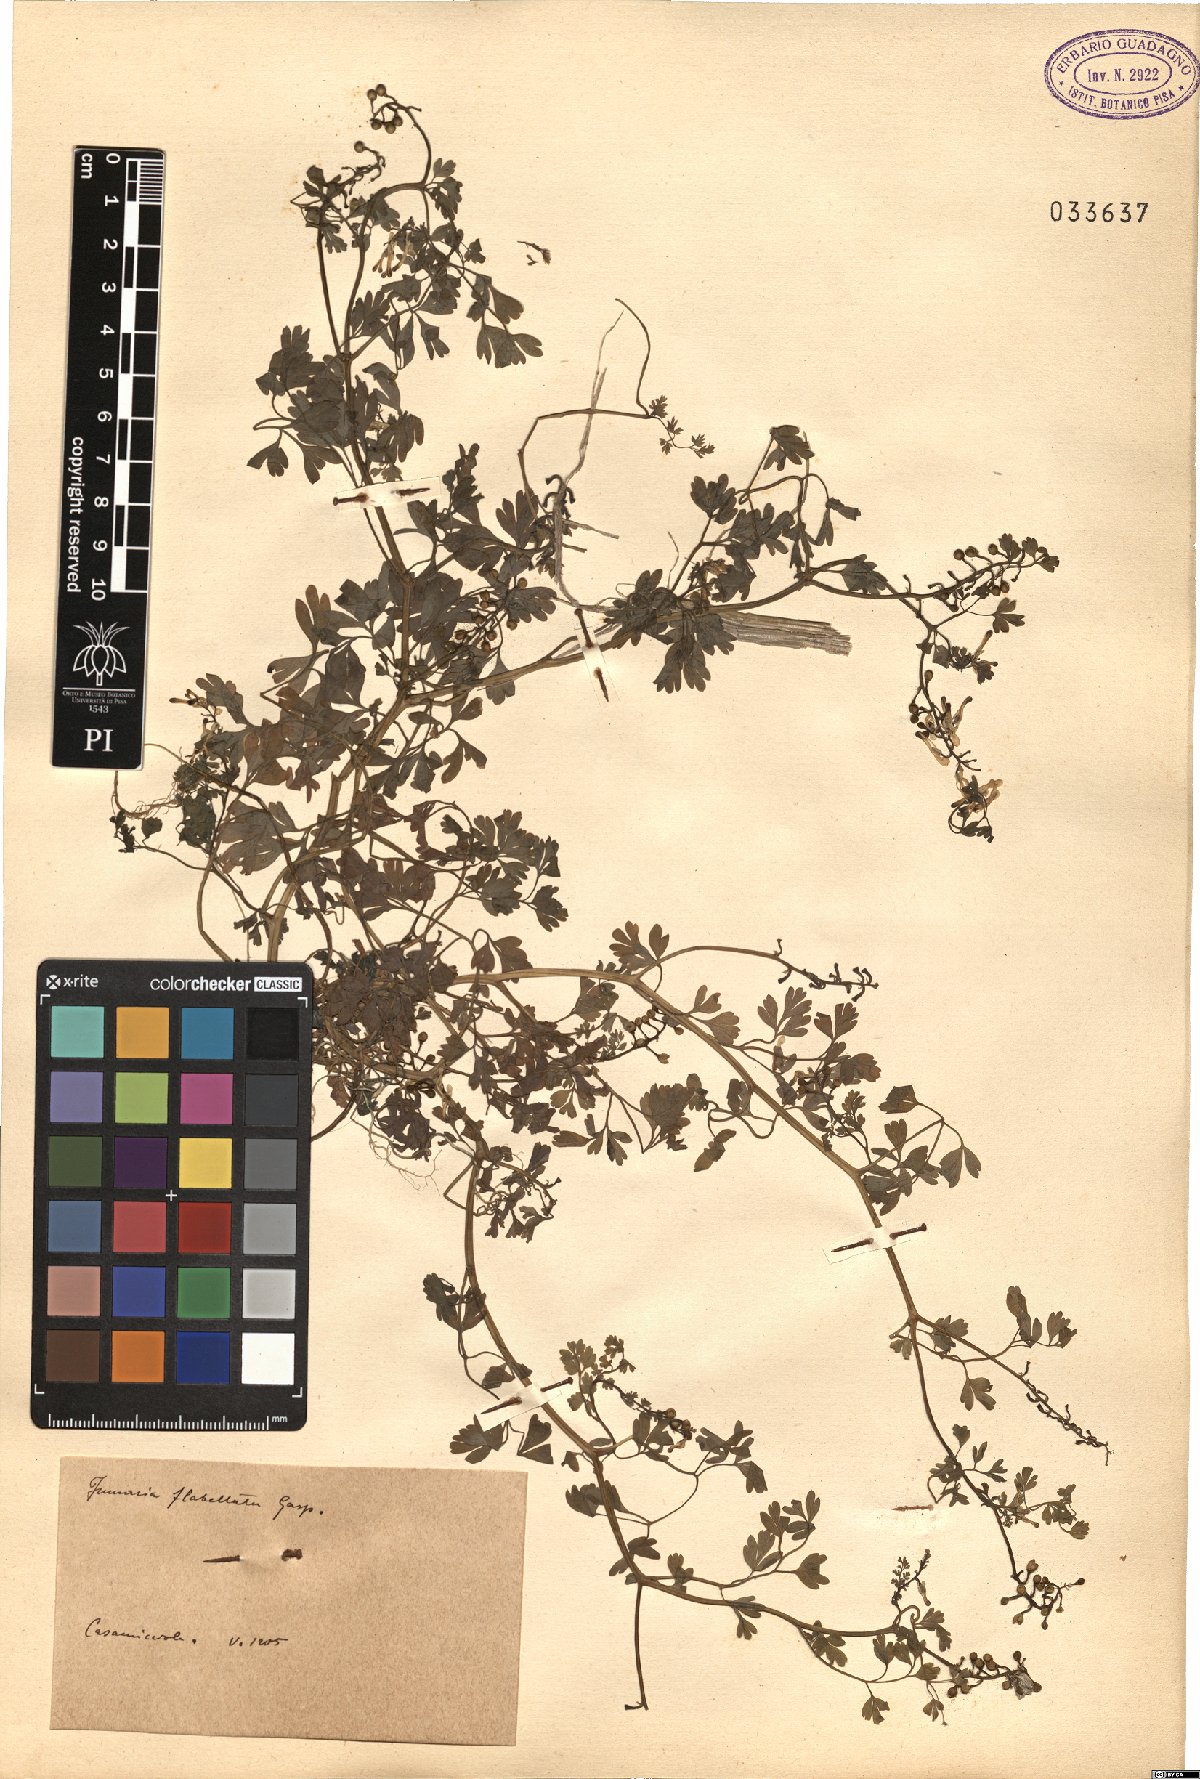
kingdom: Plantae
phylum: Tracheophyta
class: Magnoliopsida
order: Ranunculales
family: Papaveraceae
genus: Fumaria
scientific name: Fumaria flabellata
